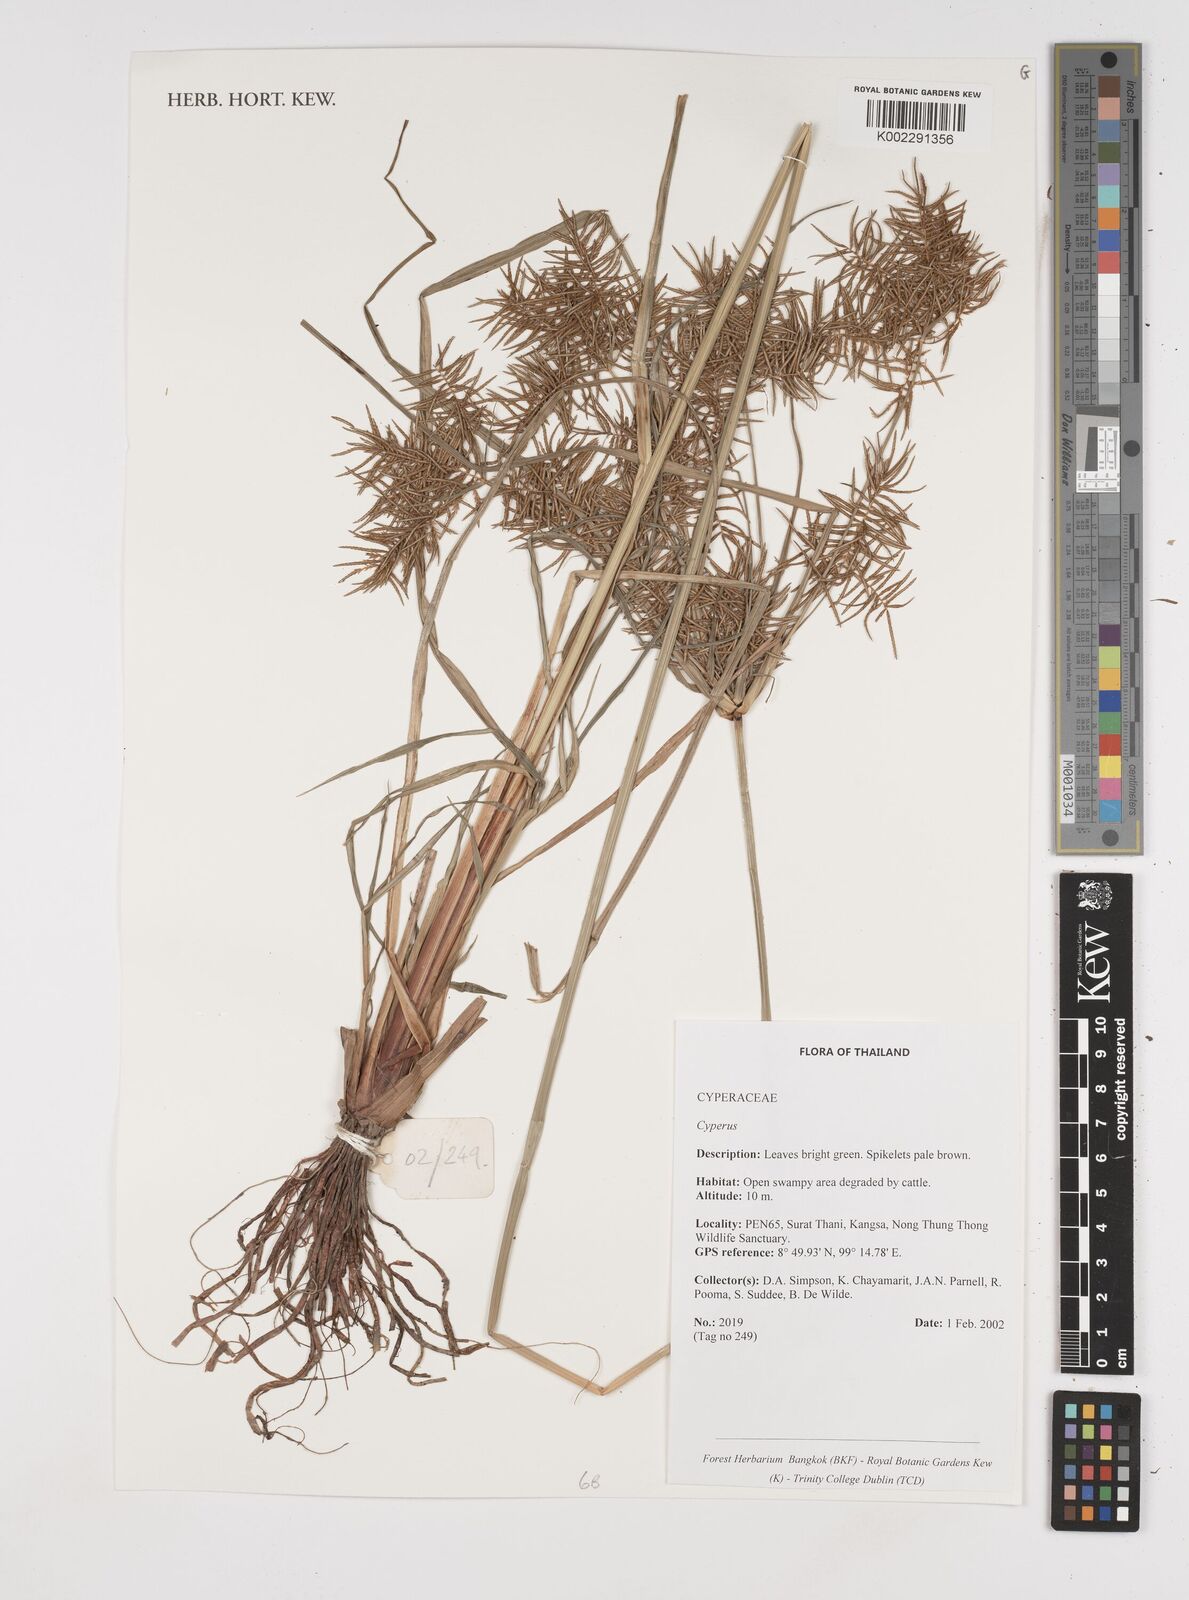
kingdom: Plantae
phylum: Tracheophyta
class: Liliopsida
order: Poales
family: Cyperaceae
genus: Cyperus
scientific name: Cyperus
